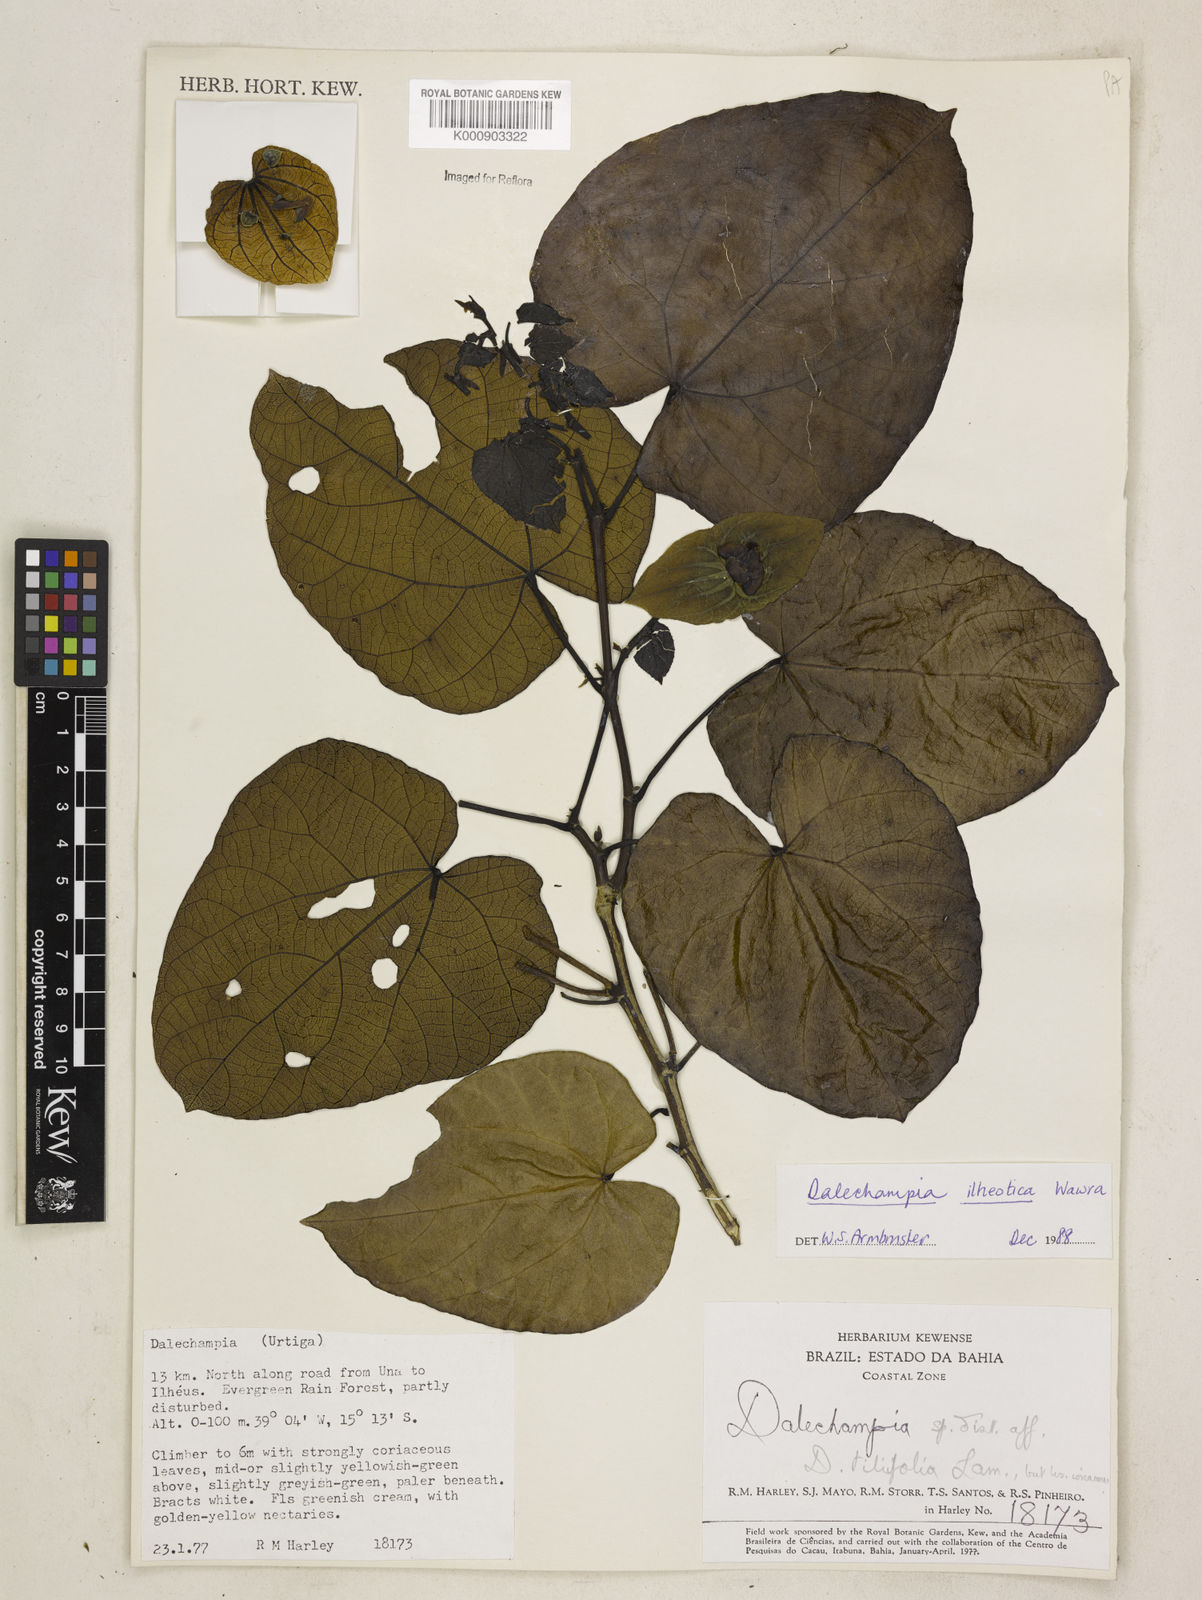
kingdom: Plantae
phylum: Tracheophyta
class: Magnoliopsida
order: Malpighiales
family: Euphorbiaceae
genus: Dalechampia
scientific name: Dalechampia ilheotica
